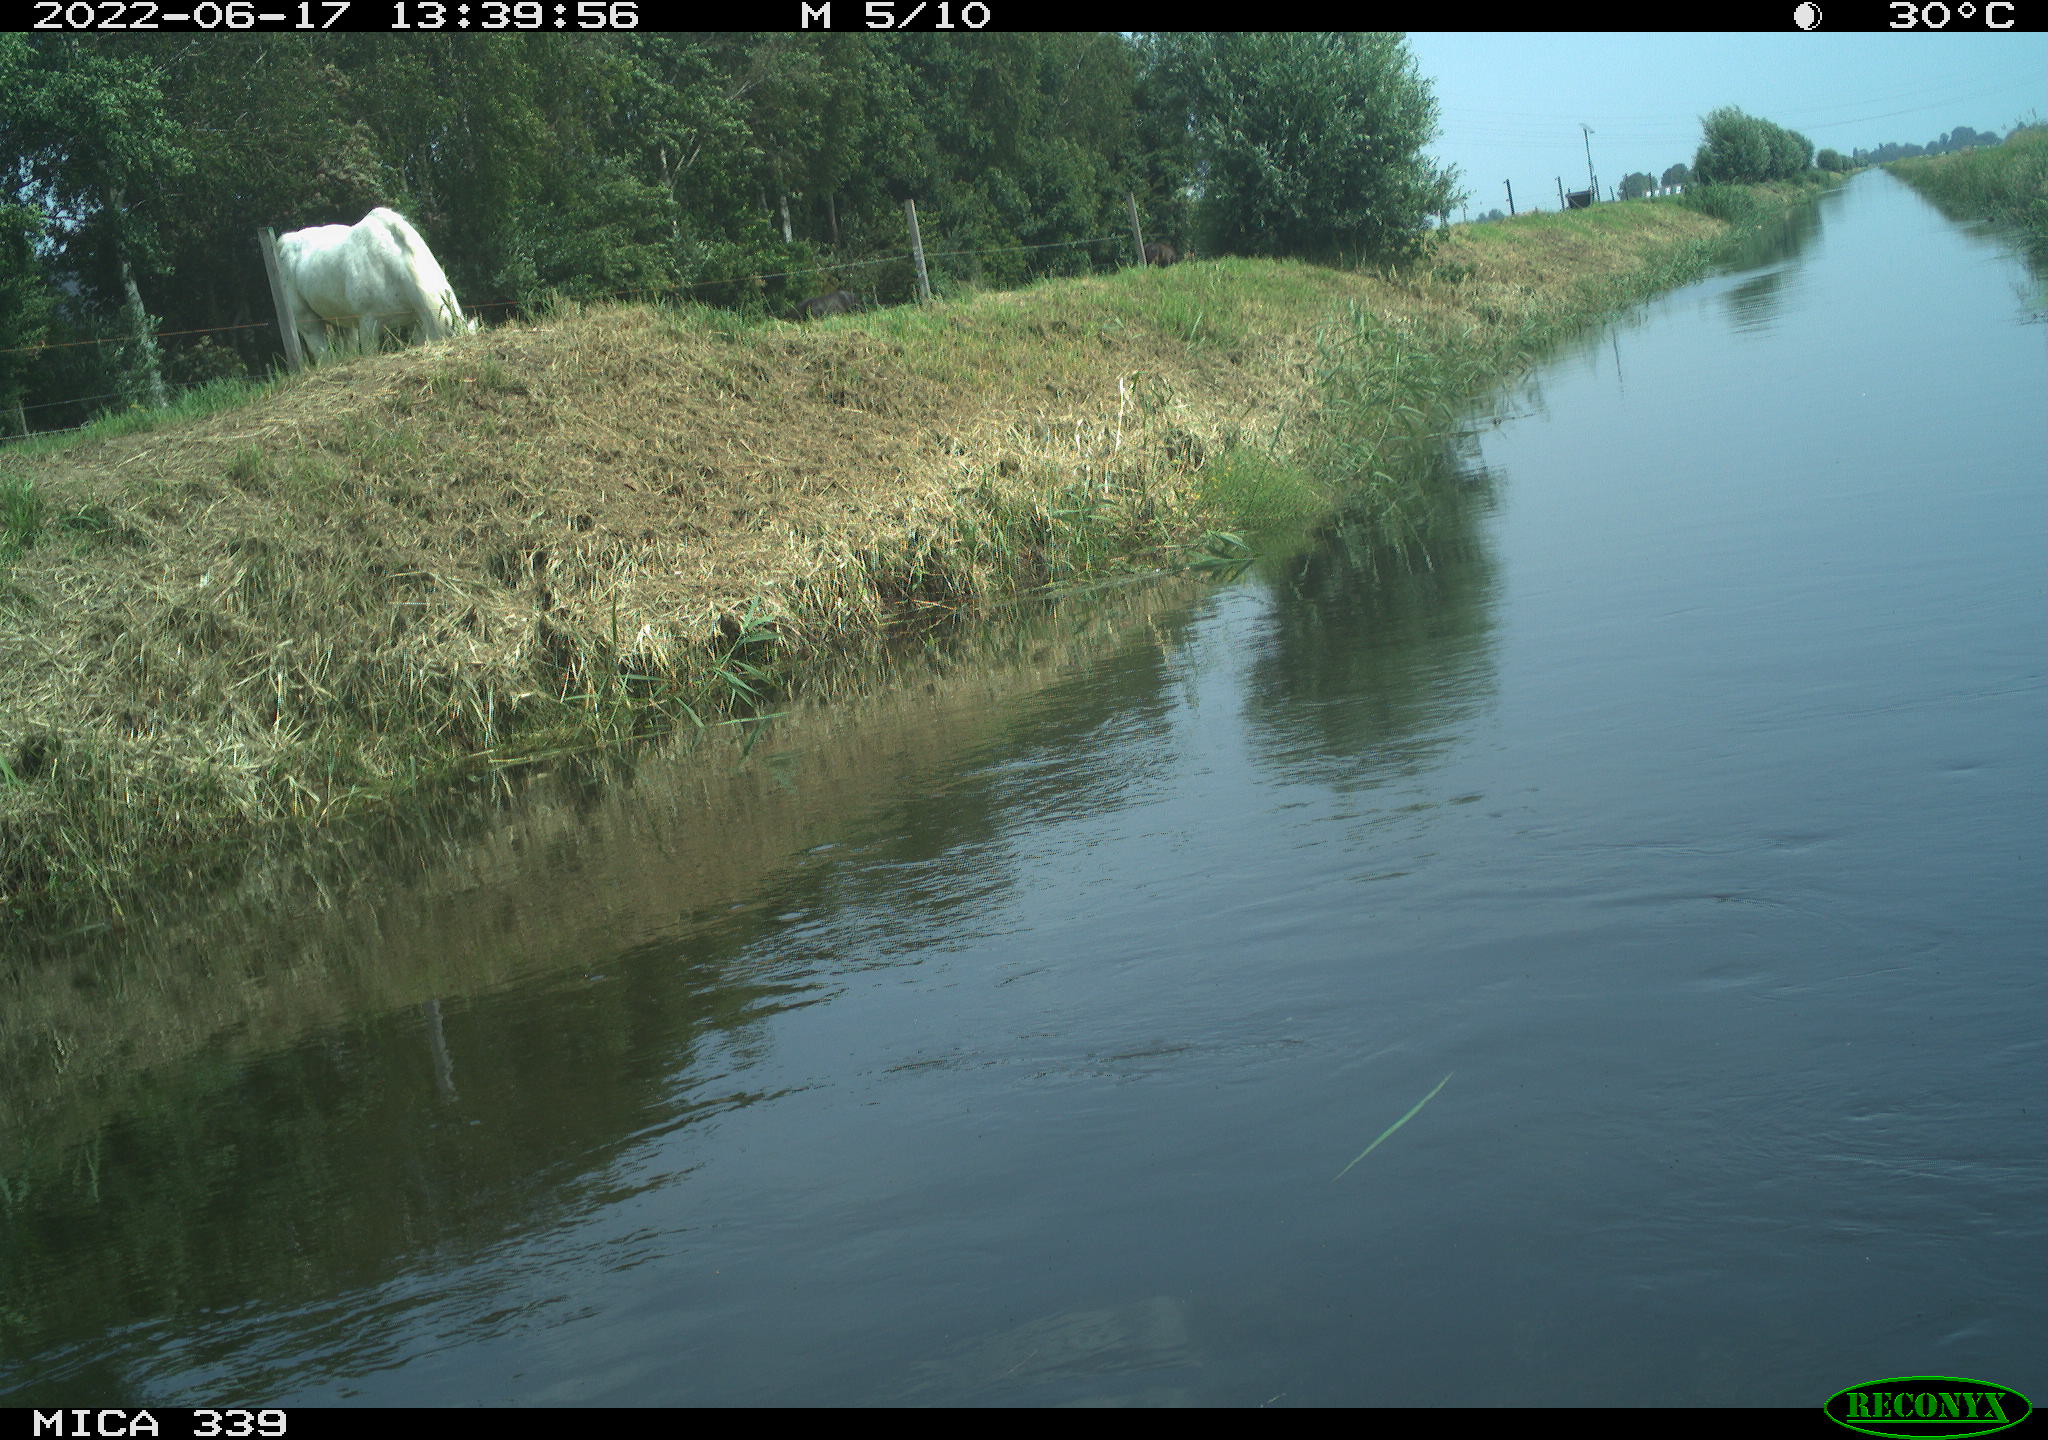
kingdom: Animalia
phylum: Chordata
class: Mammalia
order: Perissodactyla
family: Equidae
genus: Equus
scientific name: Equus caballus
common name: Horse
